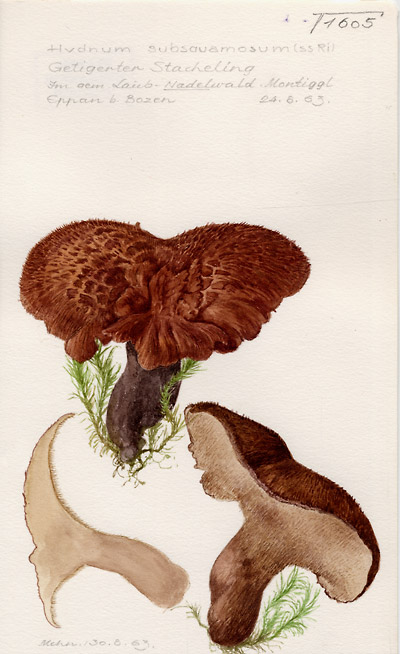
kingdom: Fungi
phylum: Basidiomycota
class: Agaricomycetes
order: Thelephorales
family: Bankeraceae
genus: Hydnellum
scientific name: Hydnellum lundellii
